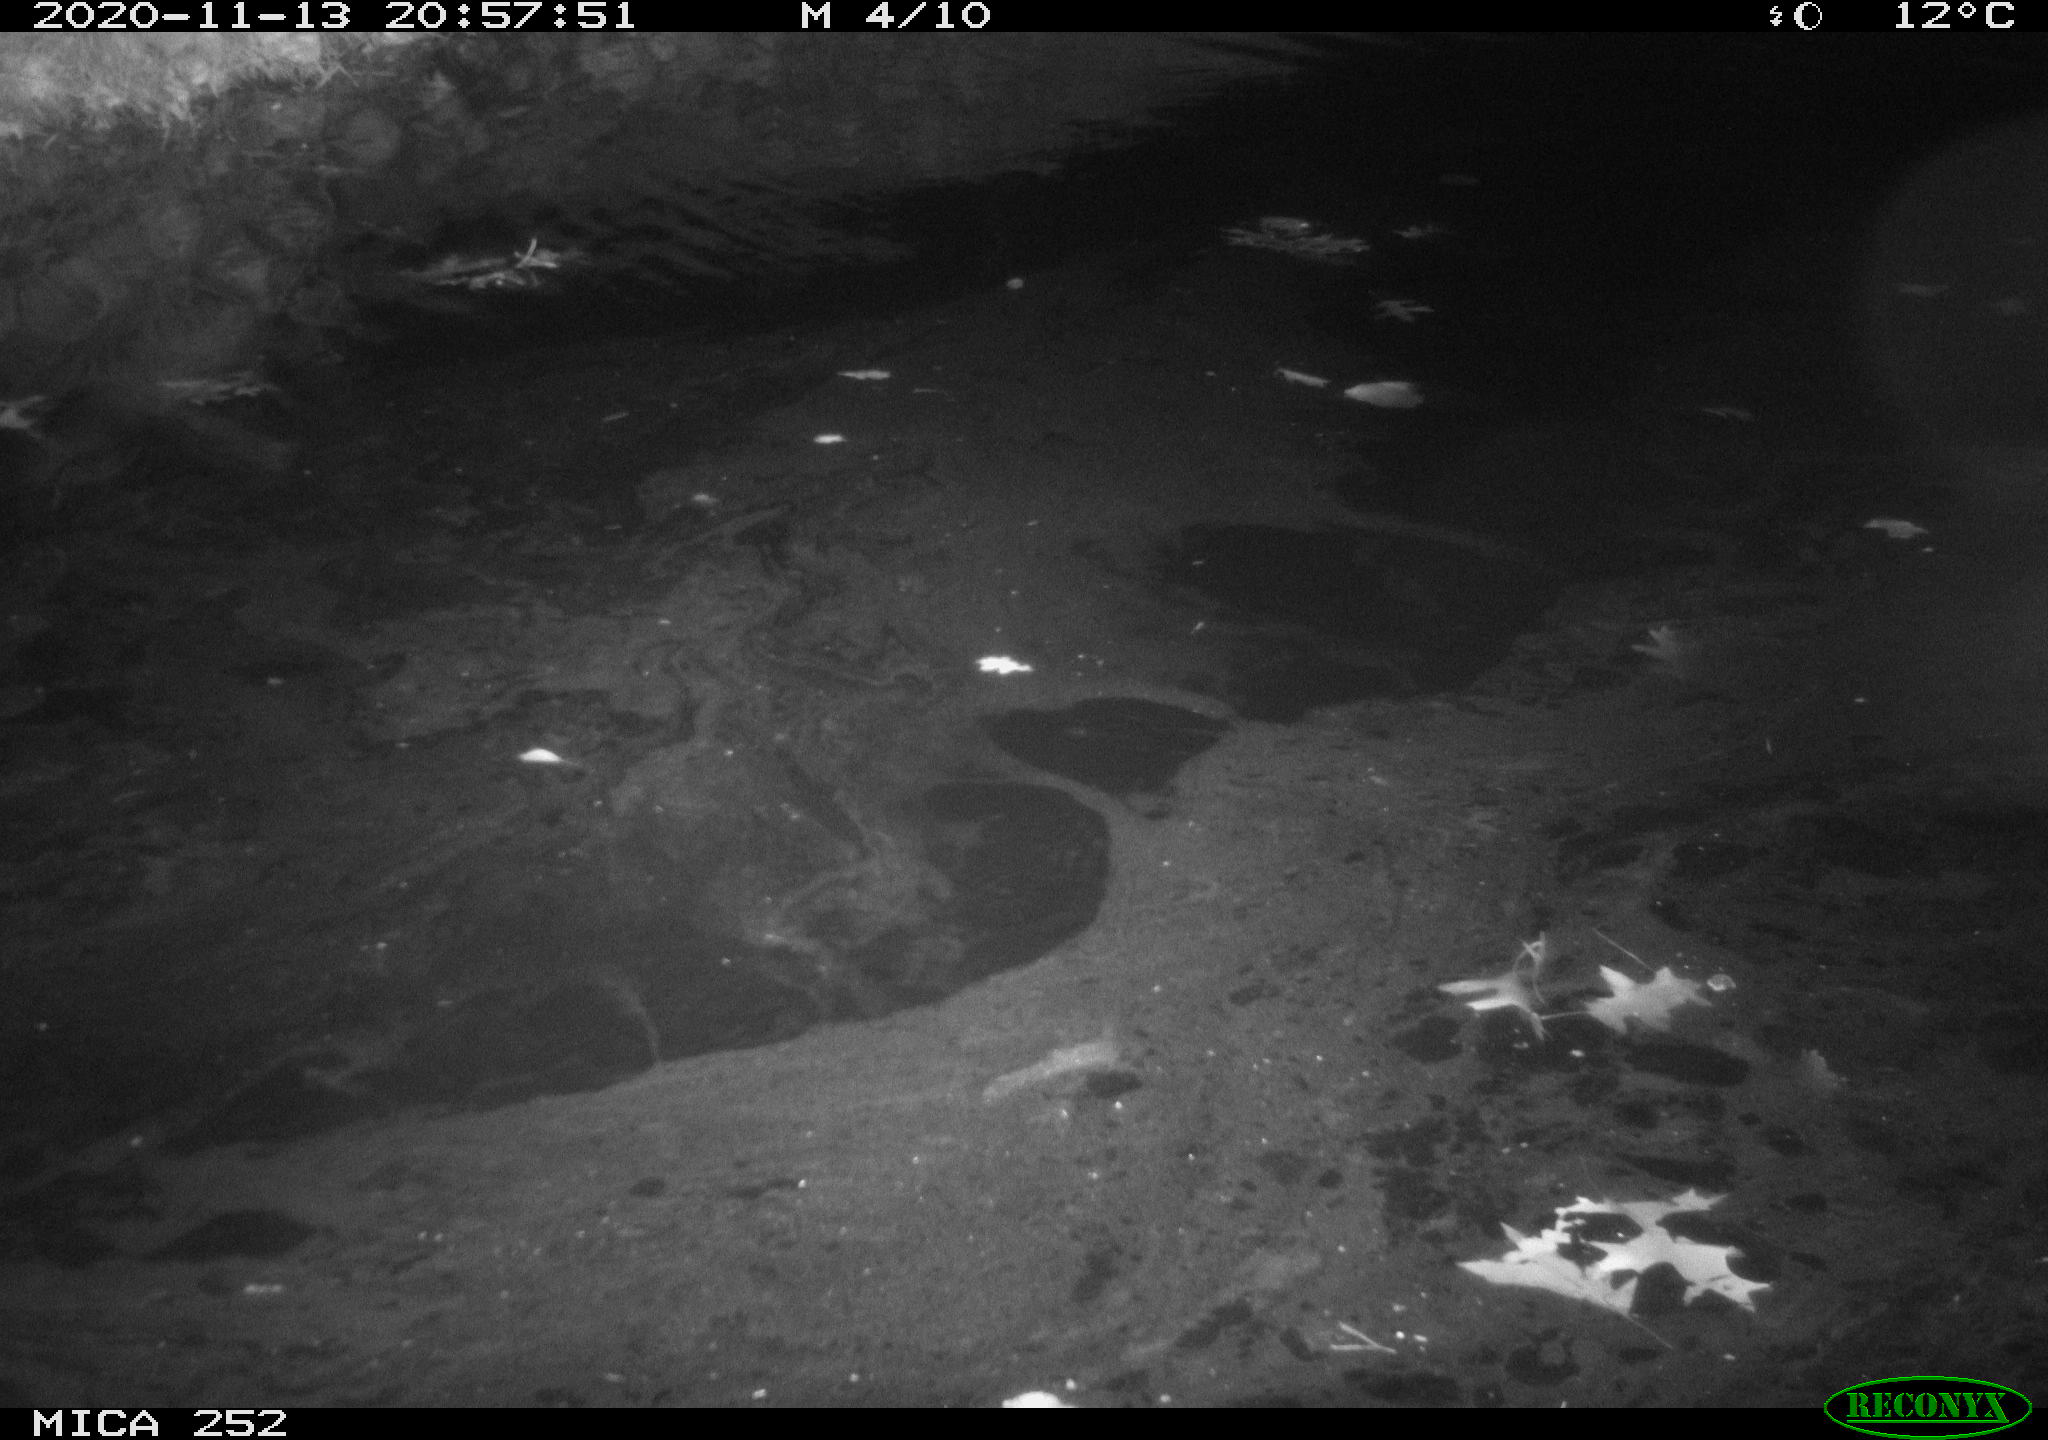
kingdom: Animalia
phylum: Chordata
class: Mammalia
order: Rodentia
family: Castoridae
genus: Castor
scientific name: Castor fiber
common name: Eurasian beaver
